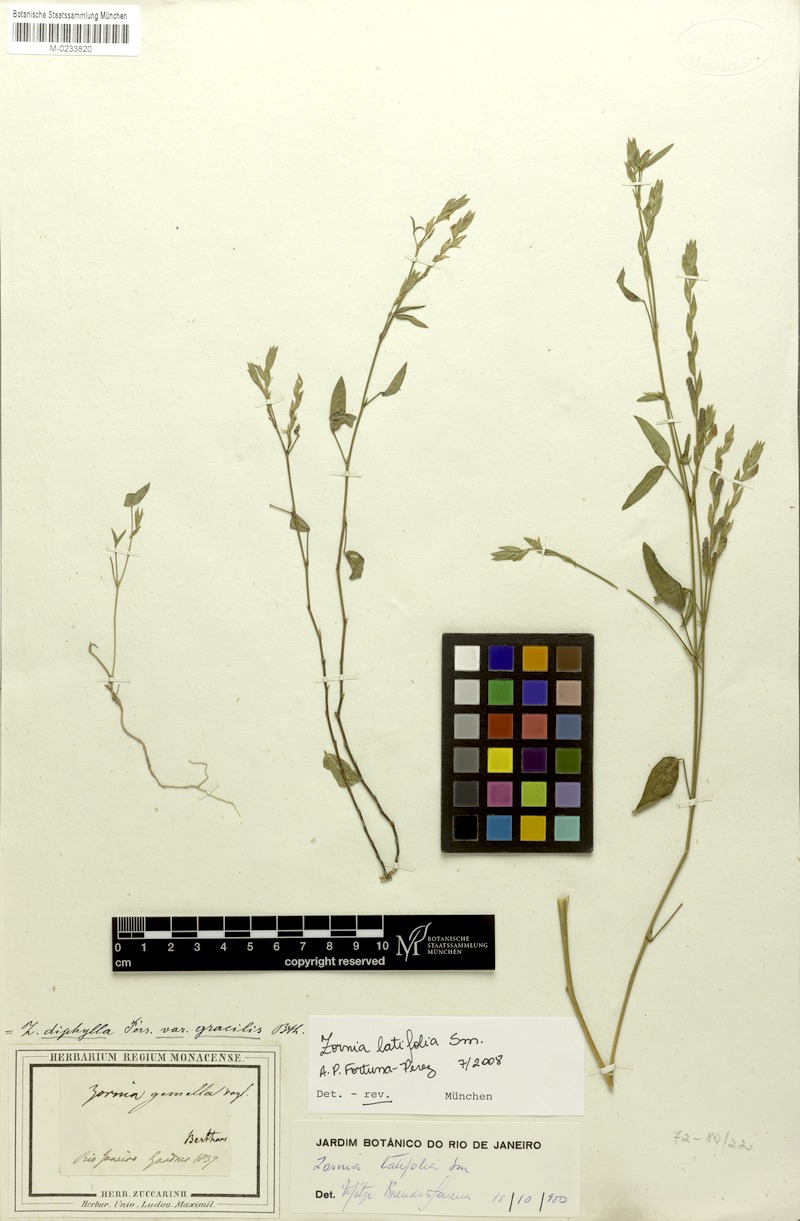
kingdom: Plantae
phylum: Tracheophyta
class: Magnoliopsida
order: Fabales
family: Fabaceae
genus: Zornia
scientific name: Zornia latifolia
